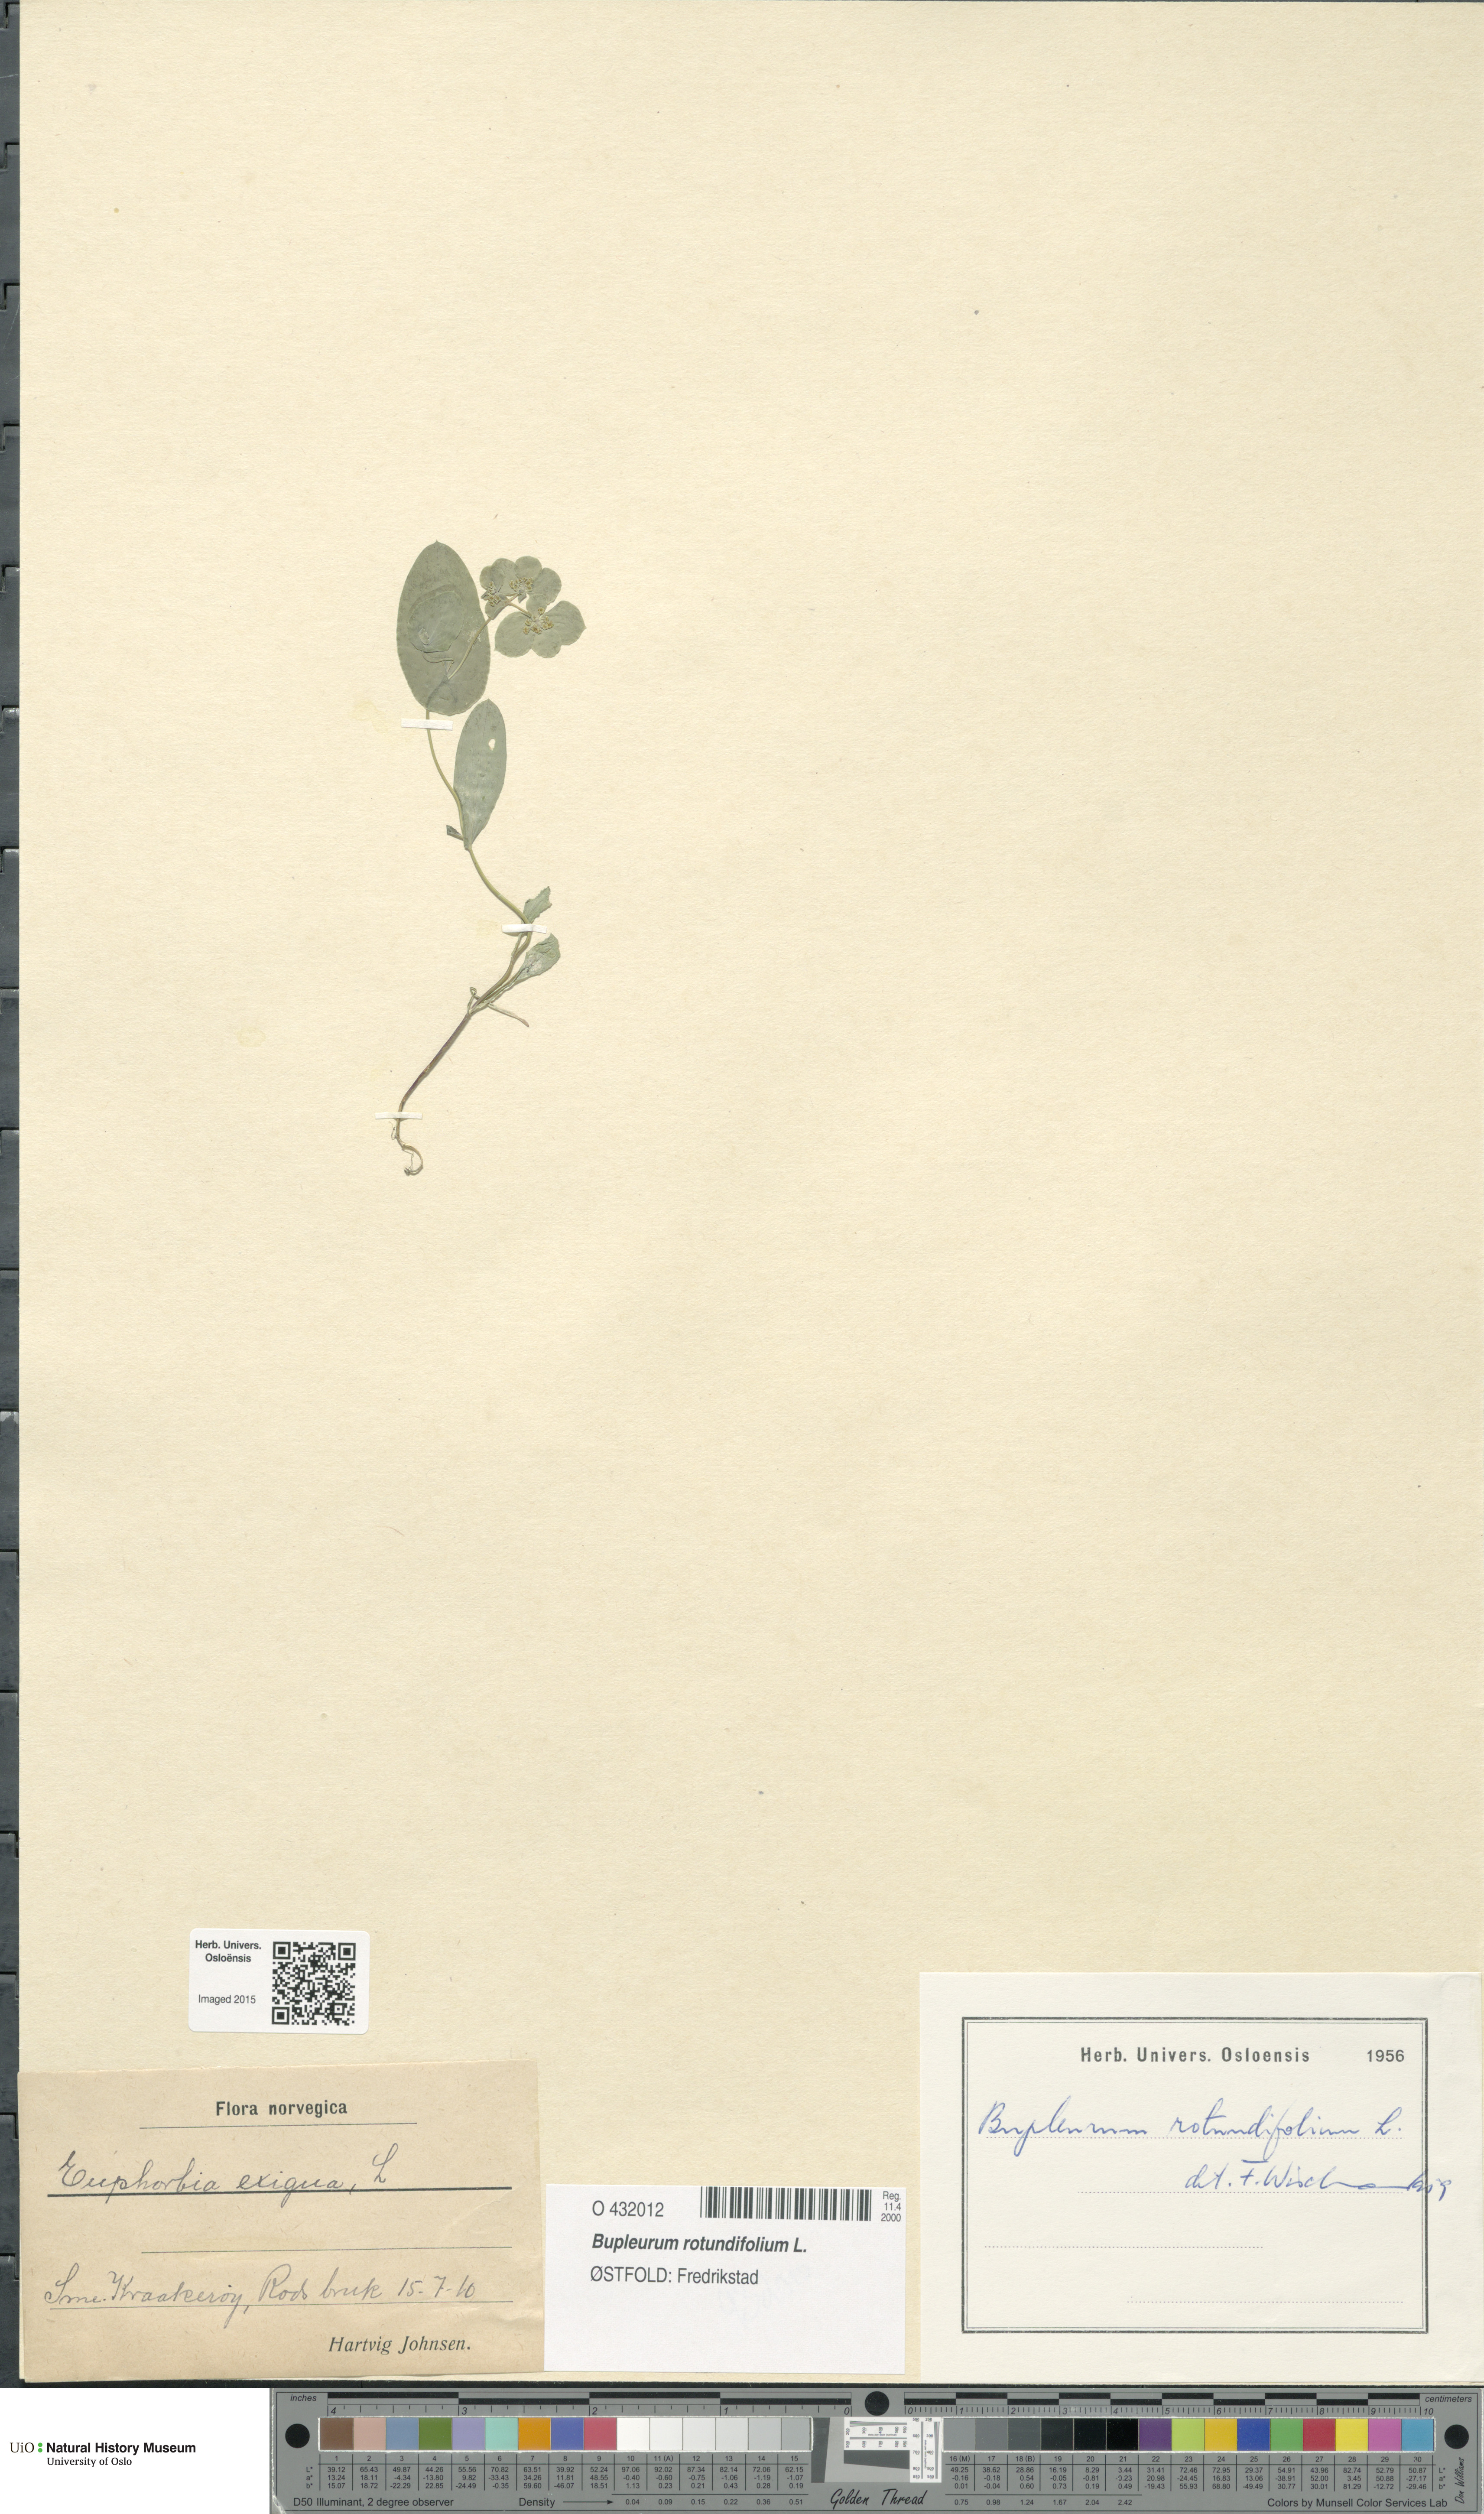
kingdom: Plantae
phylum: Tracheophyta
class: Magnoliopsida
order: Apiales
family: Apiaceae
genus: Bupleurum
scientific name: Bupleurum rotundifolium
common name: Thorow-wax
